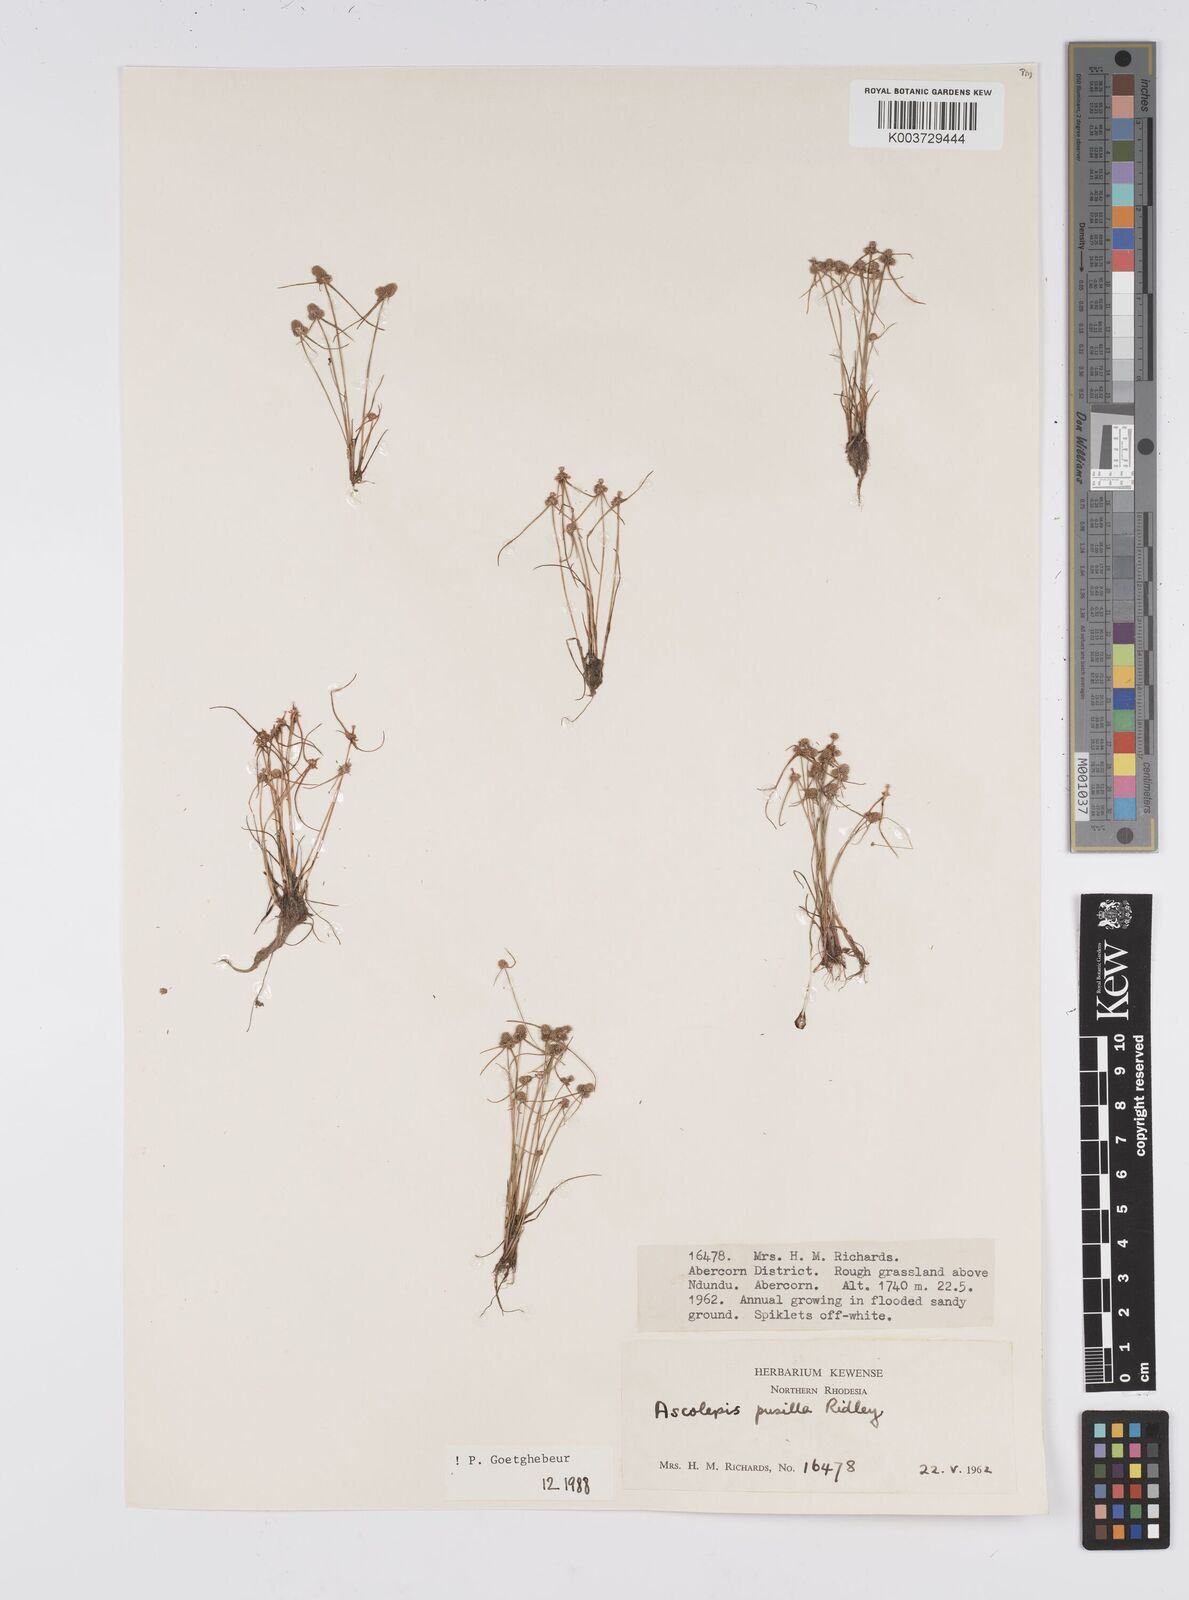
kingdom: Plantae
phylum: Tracheophyta
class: Liliopsida
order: Poales
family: Cyperaceae
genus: Cyperus
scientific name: Cyperus
